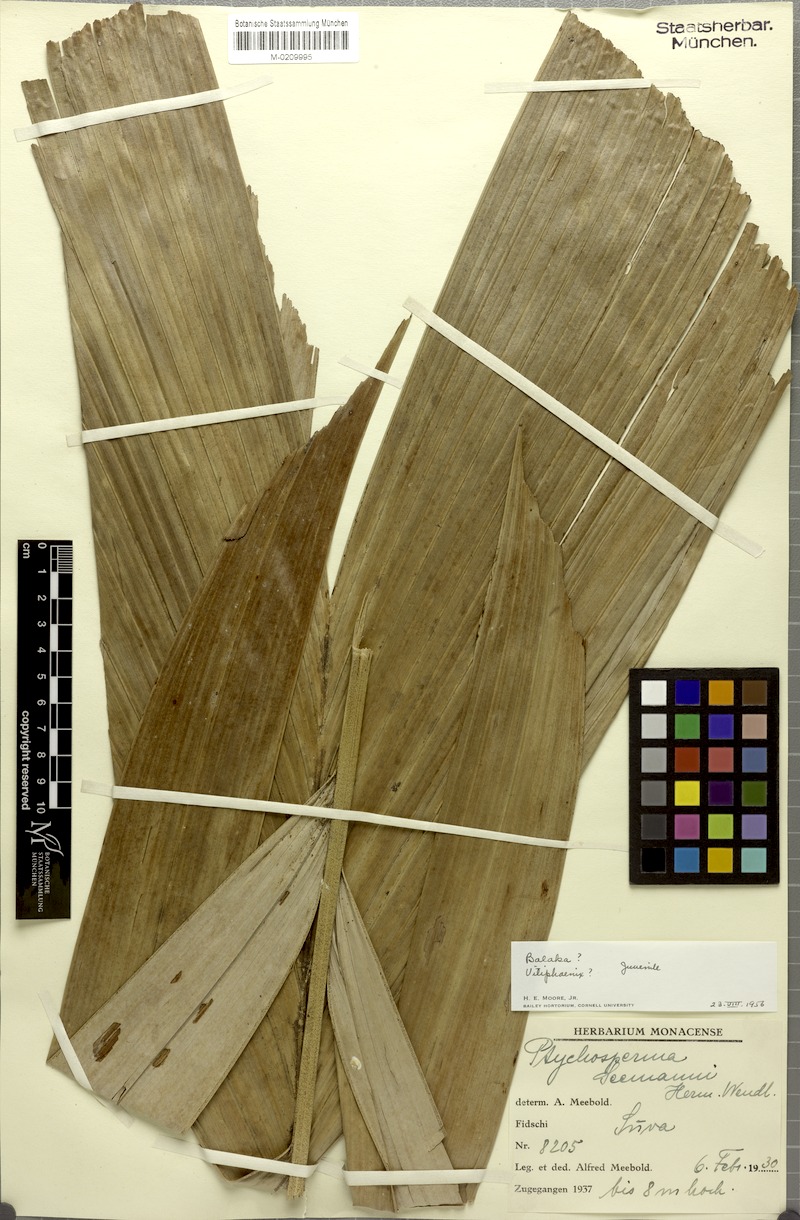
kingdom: Plantae
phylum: Tracheophyta
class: Liliopsida
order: Arecales
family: Arecaceae
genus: Balaka
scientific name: Balaka seemannii
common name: Balaka palm
